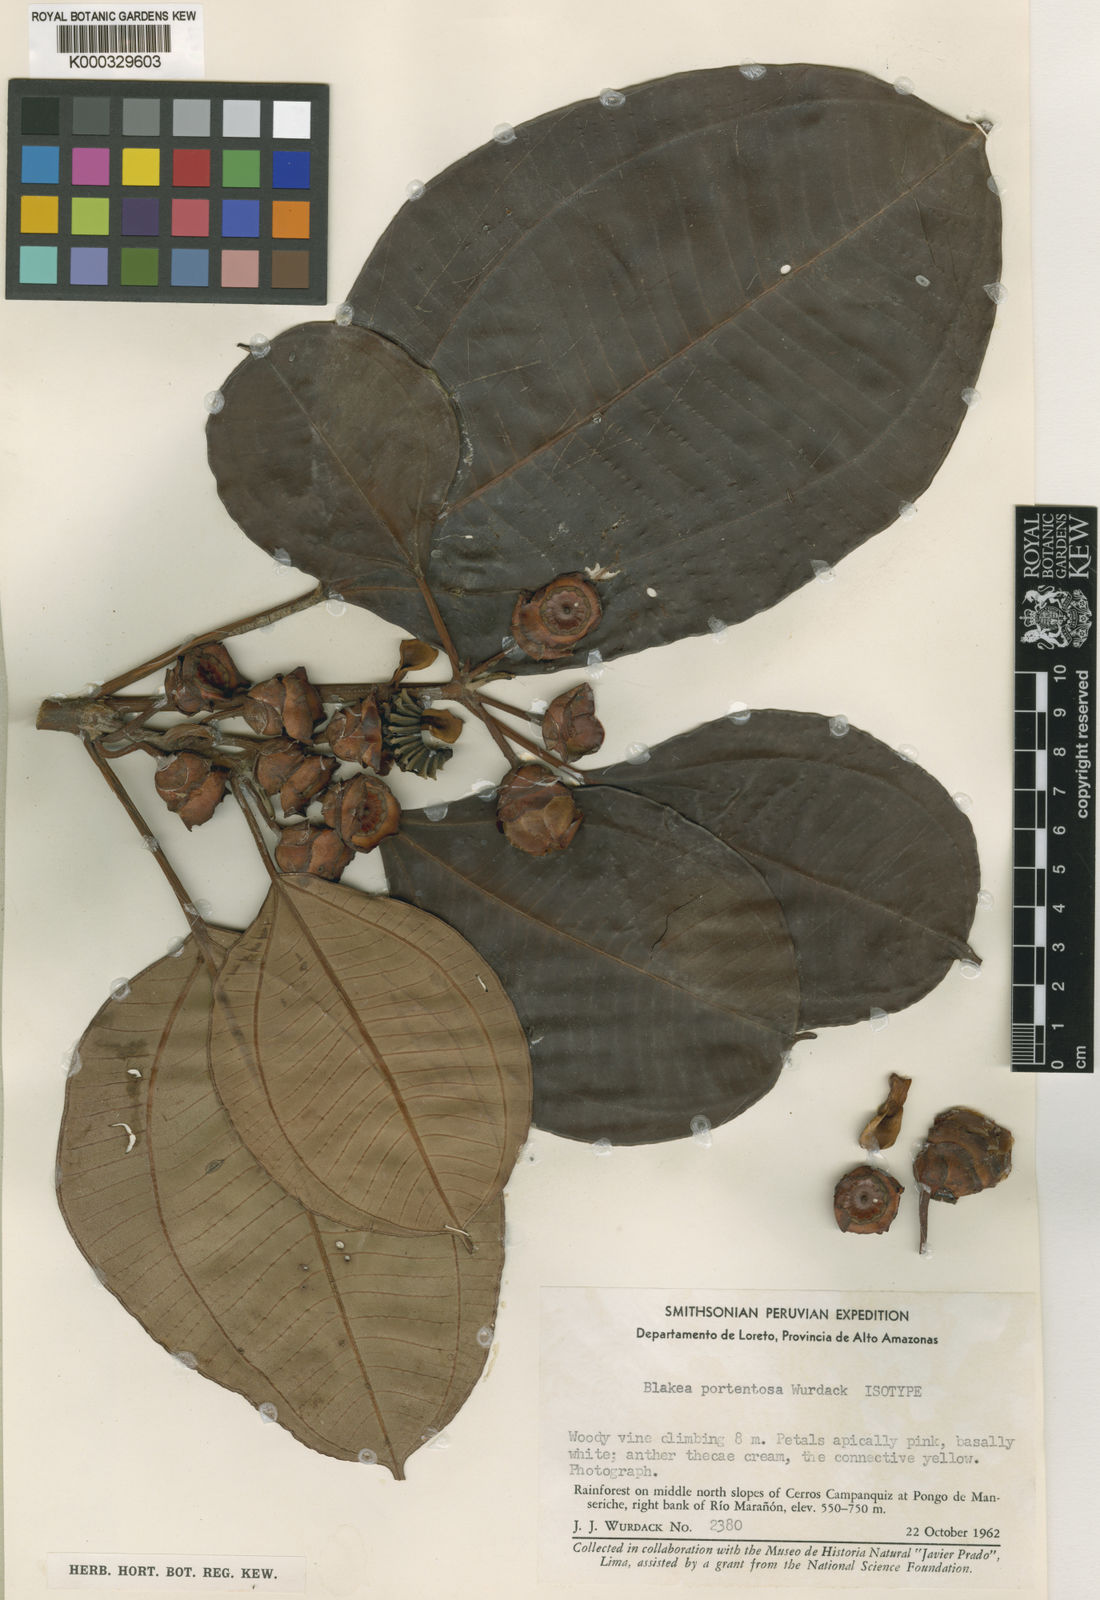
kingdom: Plantae
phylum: Tracheophyta
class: Magnoliopsida
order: Myrtales
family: Melastomataceae
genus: Blakea
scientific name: Blakea portentosa
